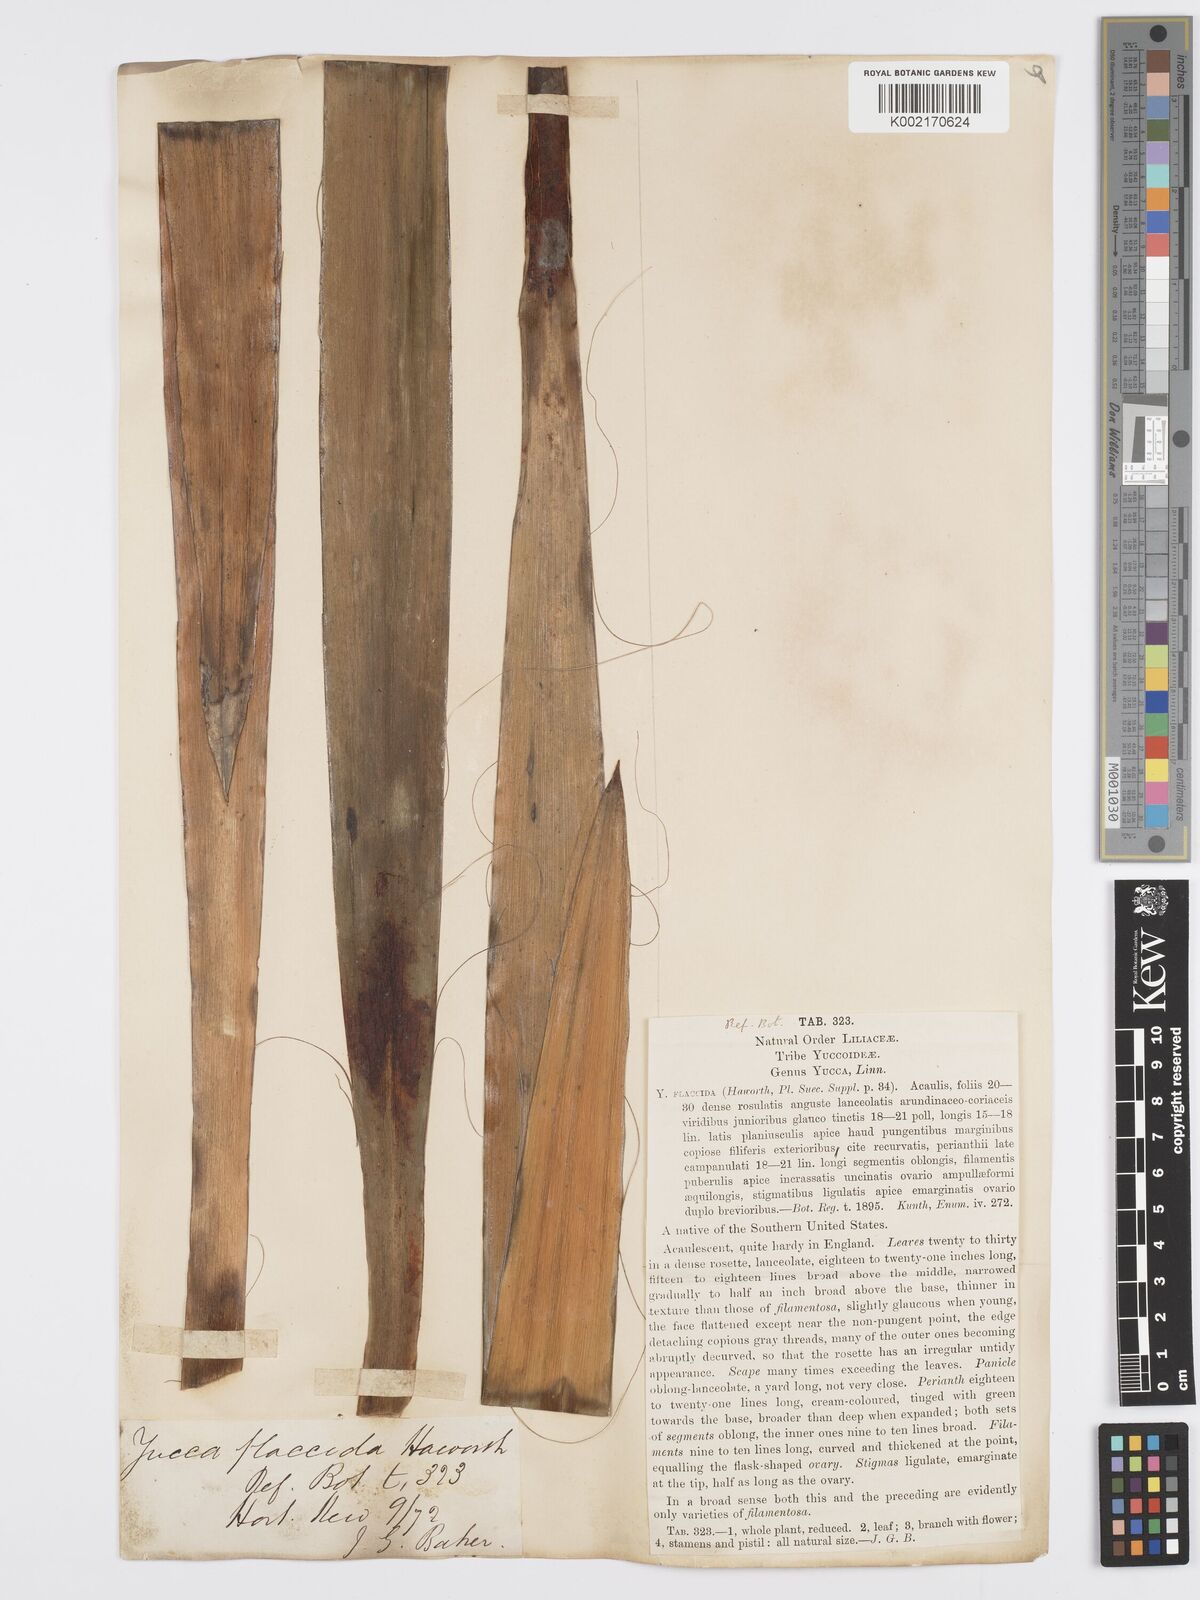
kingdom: Plantae
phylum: Tracheophyta
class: Liliopsida
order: Asparagales
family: Asparagaceae
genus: Yucca
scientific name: Yucca flaccida
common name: Adam's-needle
